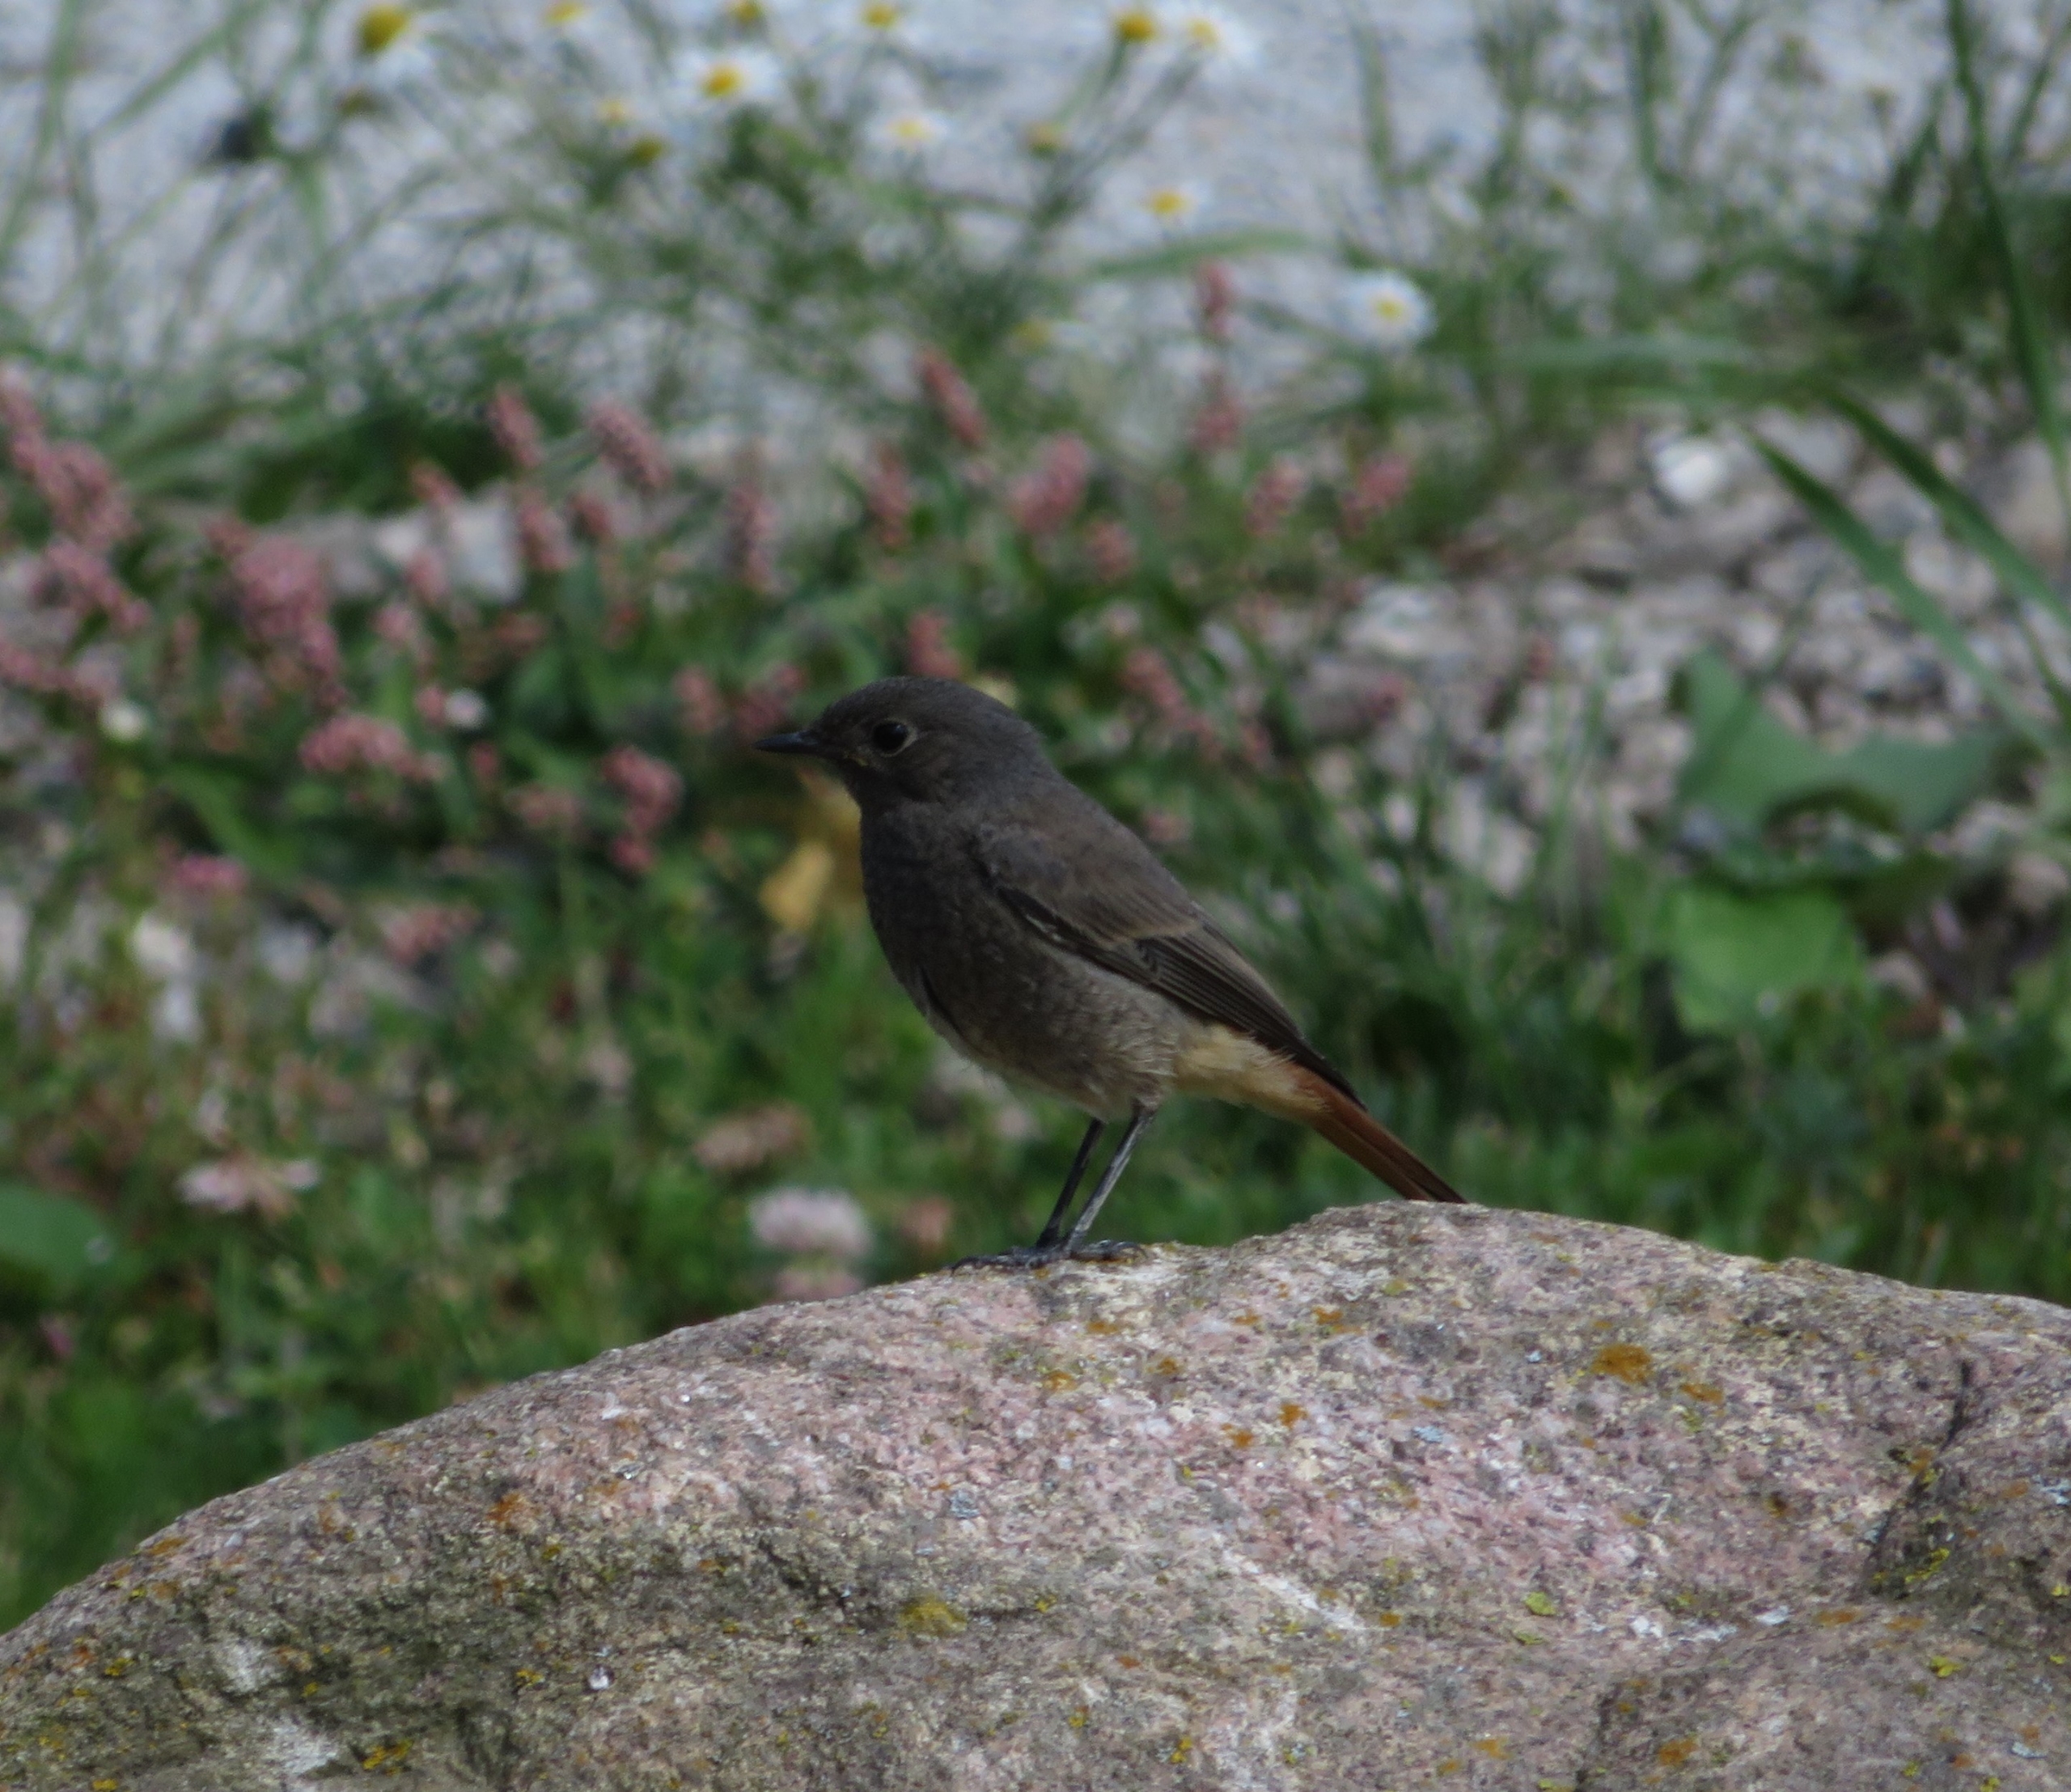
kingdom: Animalia
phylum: Chordata
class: Aves
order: Passeriformes
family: Muscicapidae
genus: Phoenicurus
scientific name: Phoenicurus ochruros
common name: Husrødstjert
